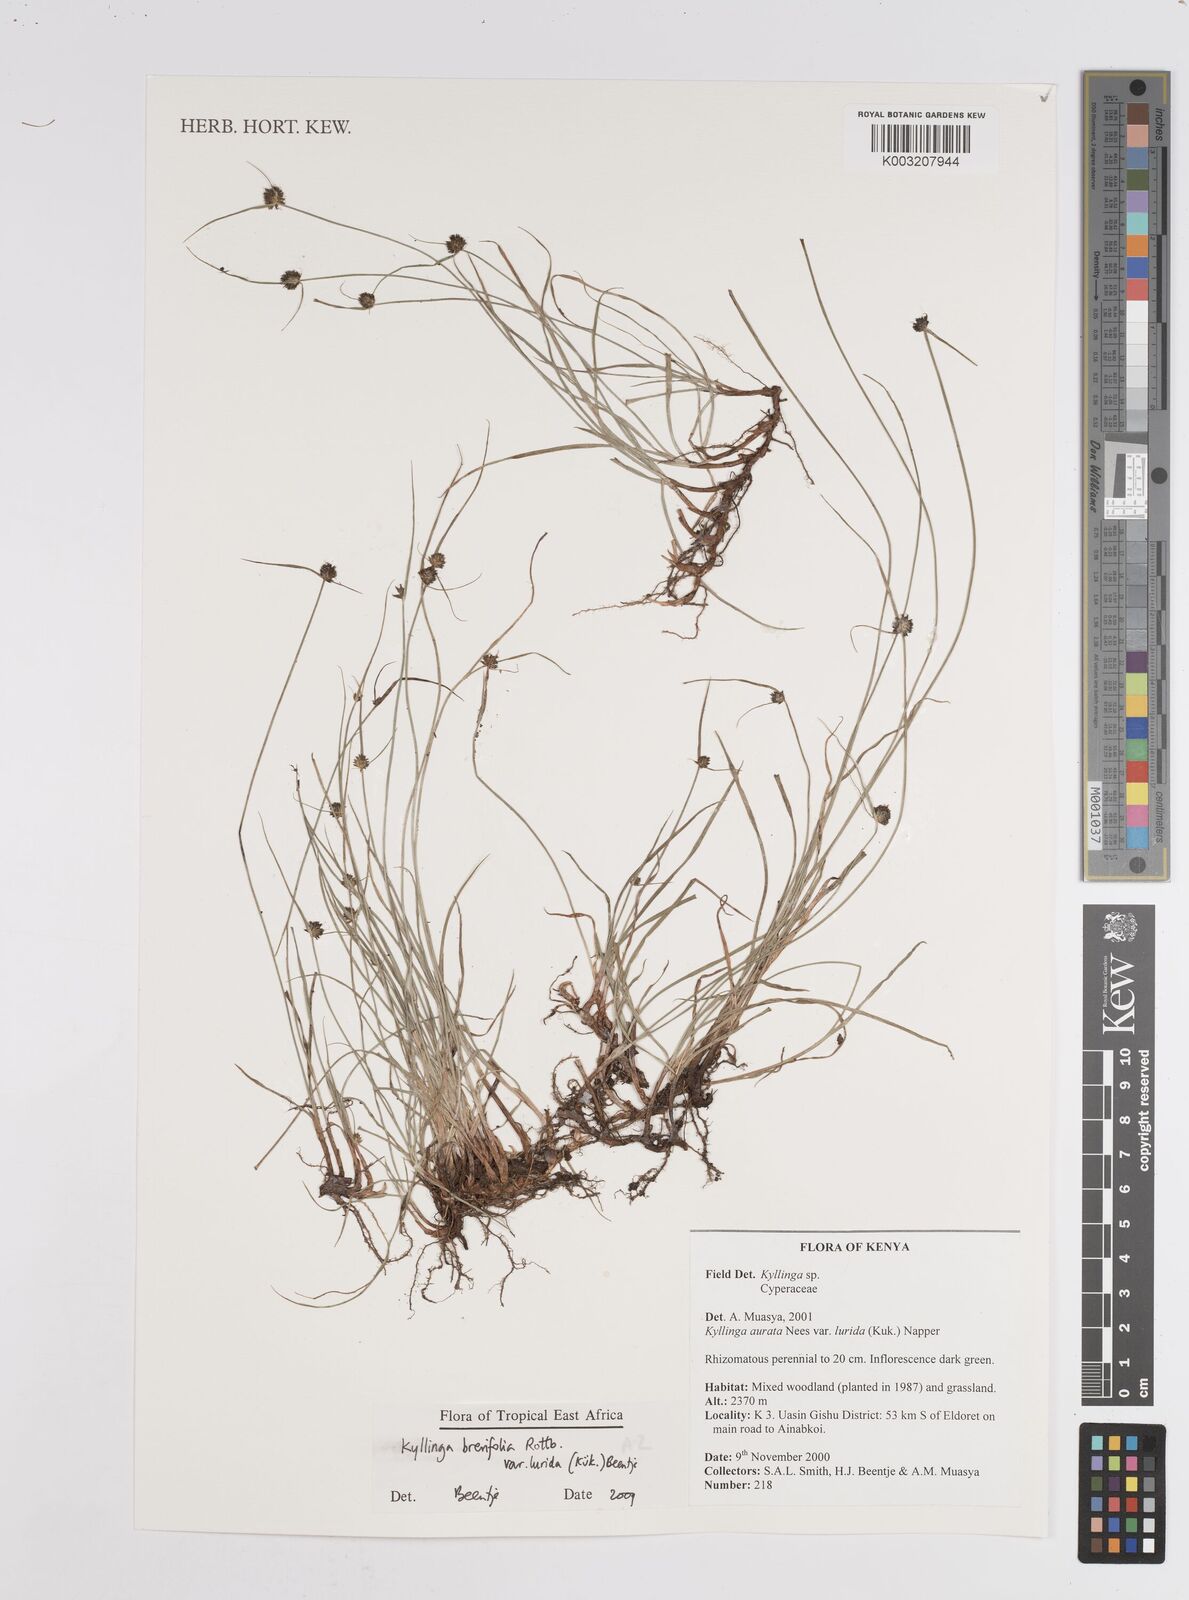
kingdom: Plantae
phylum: Tracheophyta
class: Liliopsida
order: Poales
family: Cyperaceae
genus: Cyperus
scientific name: Cyperus erectus
